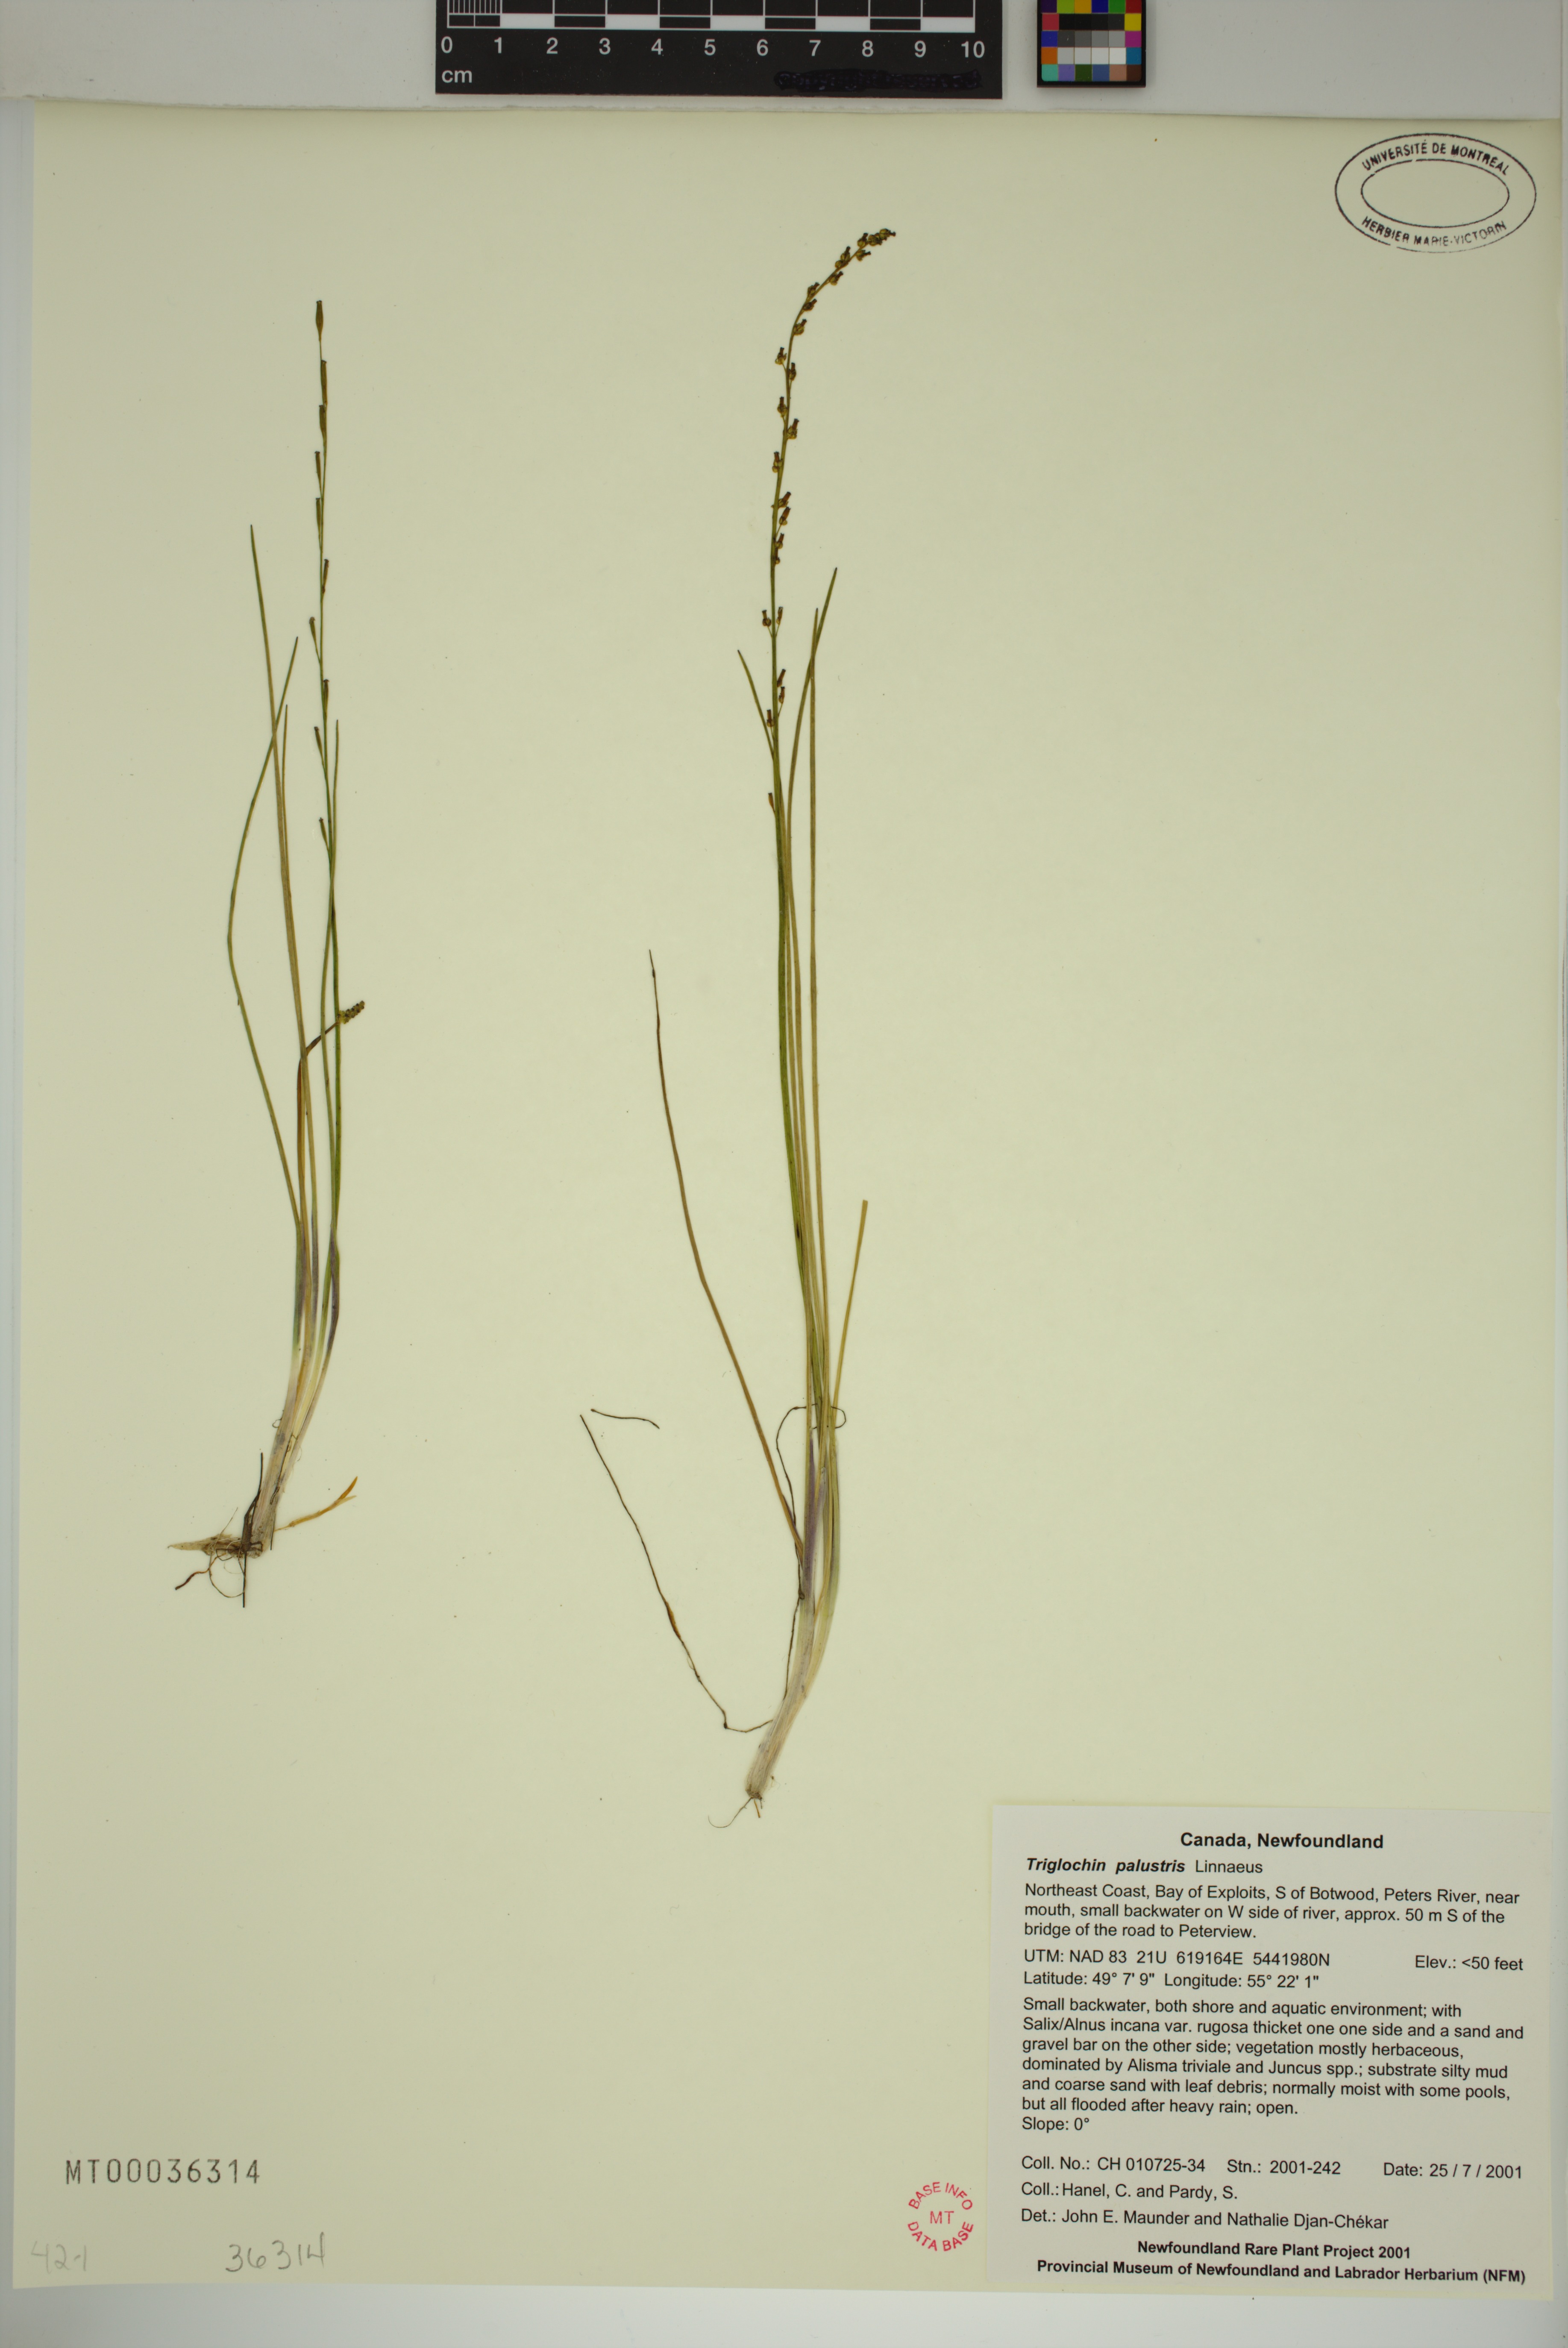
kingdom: Plantae
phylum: Tracheophyta
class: Liliopsida
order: Alismatales
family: Juncaginaceae
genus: Triglochin
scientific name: Triglochin palustris
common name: Marsh arrowgrass
